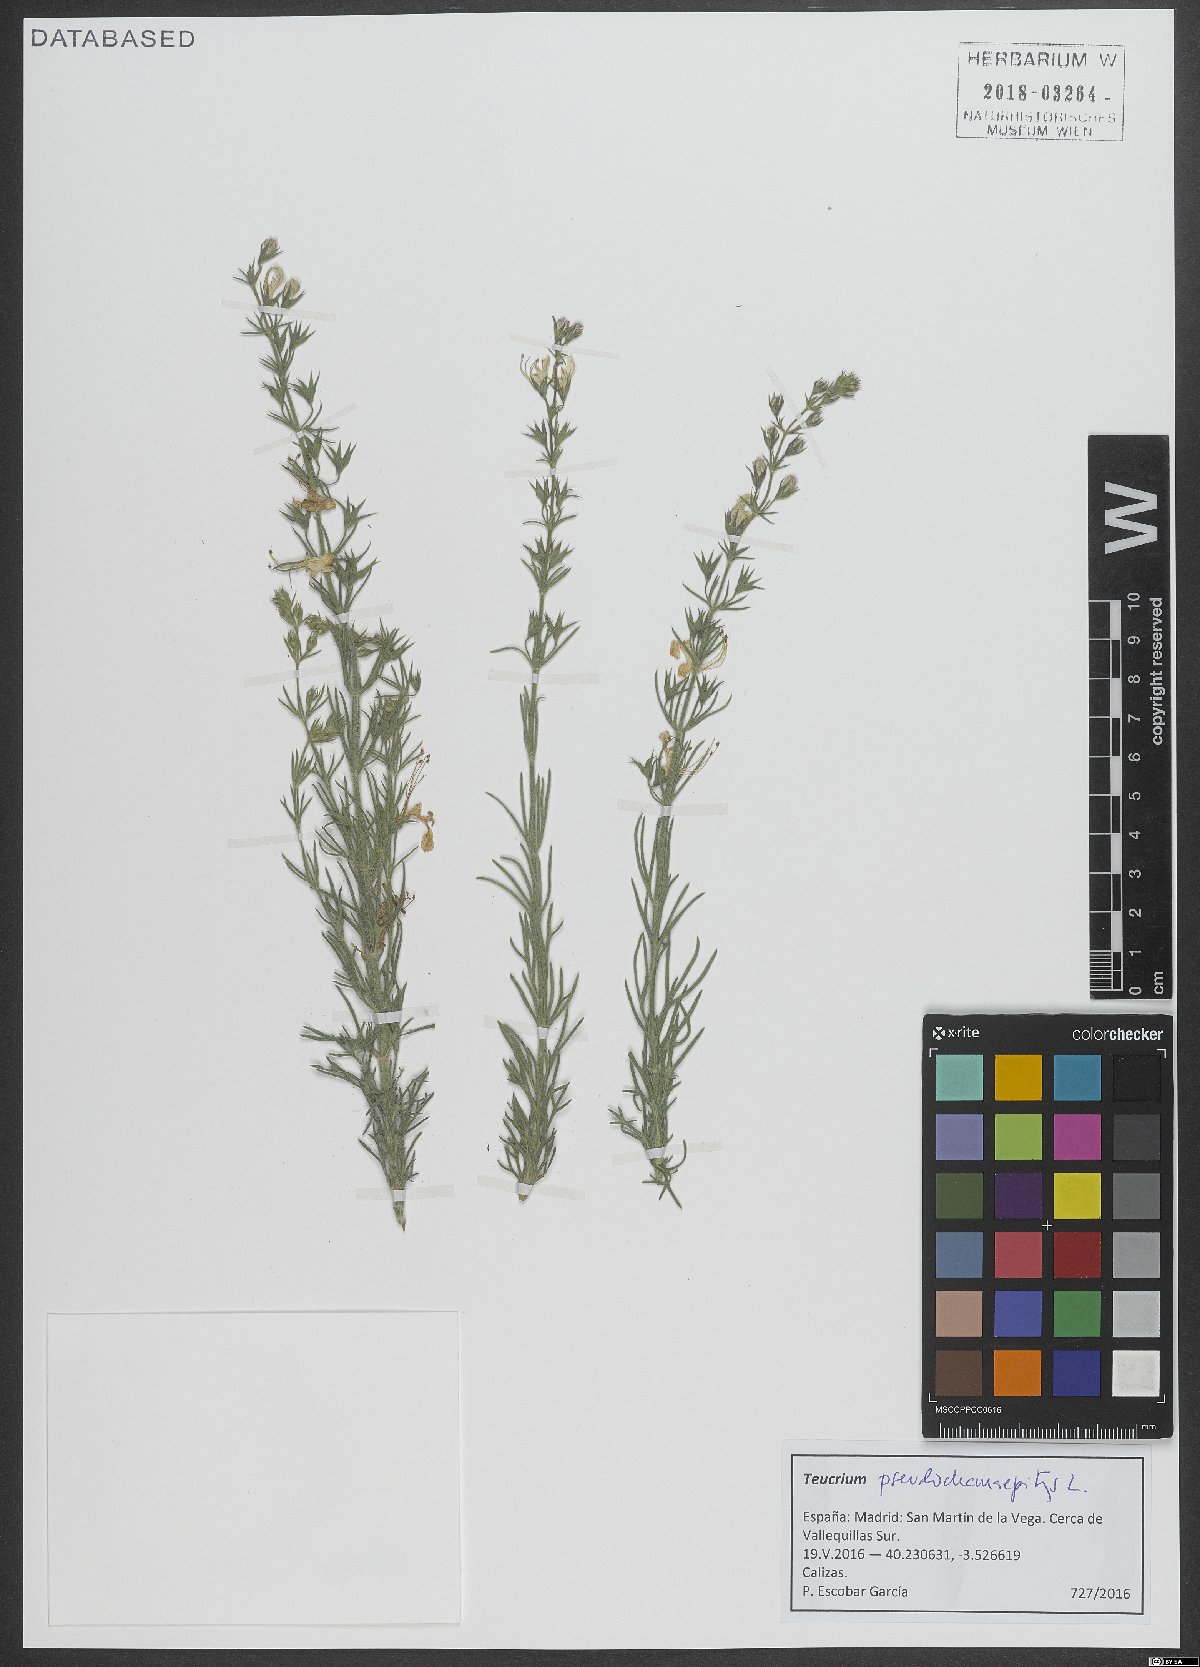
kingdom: Plantae
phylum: Tracheophyta
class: Magnoliopsida
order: Lamiales
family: Lamiaceae
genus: Teucrium
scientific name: Teucrium pseudochamaepitys
